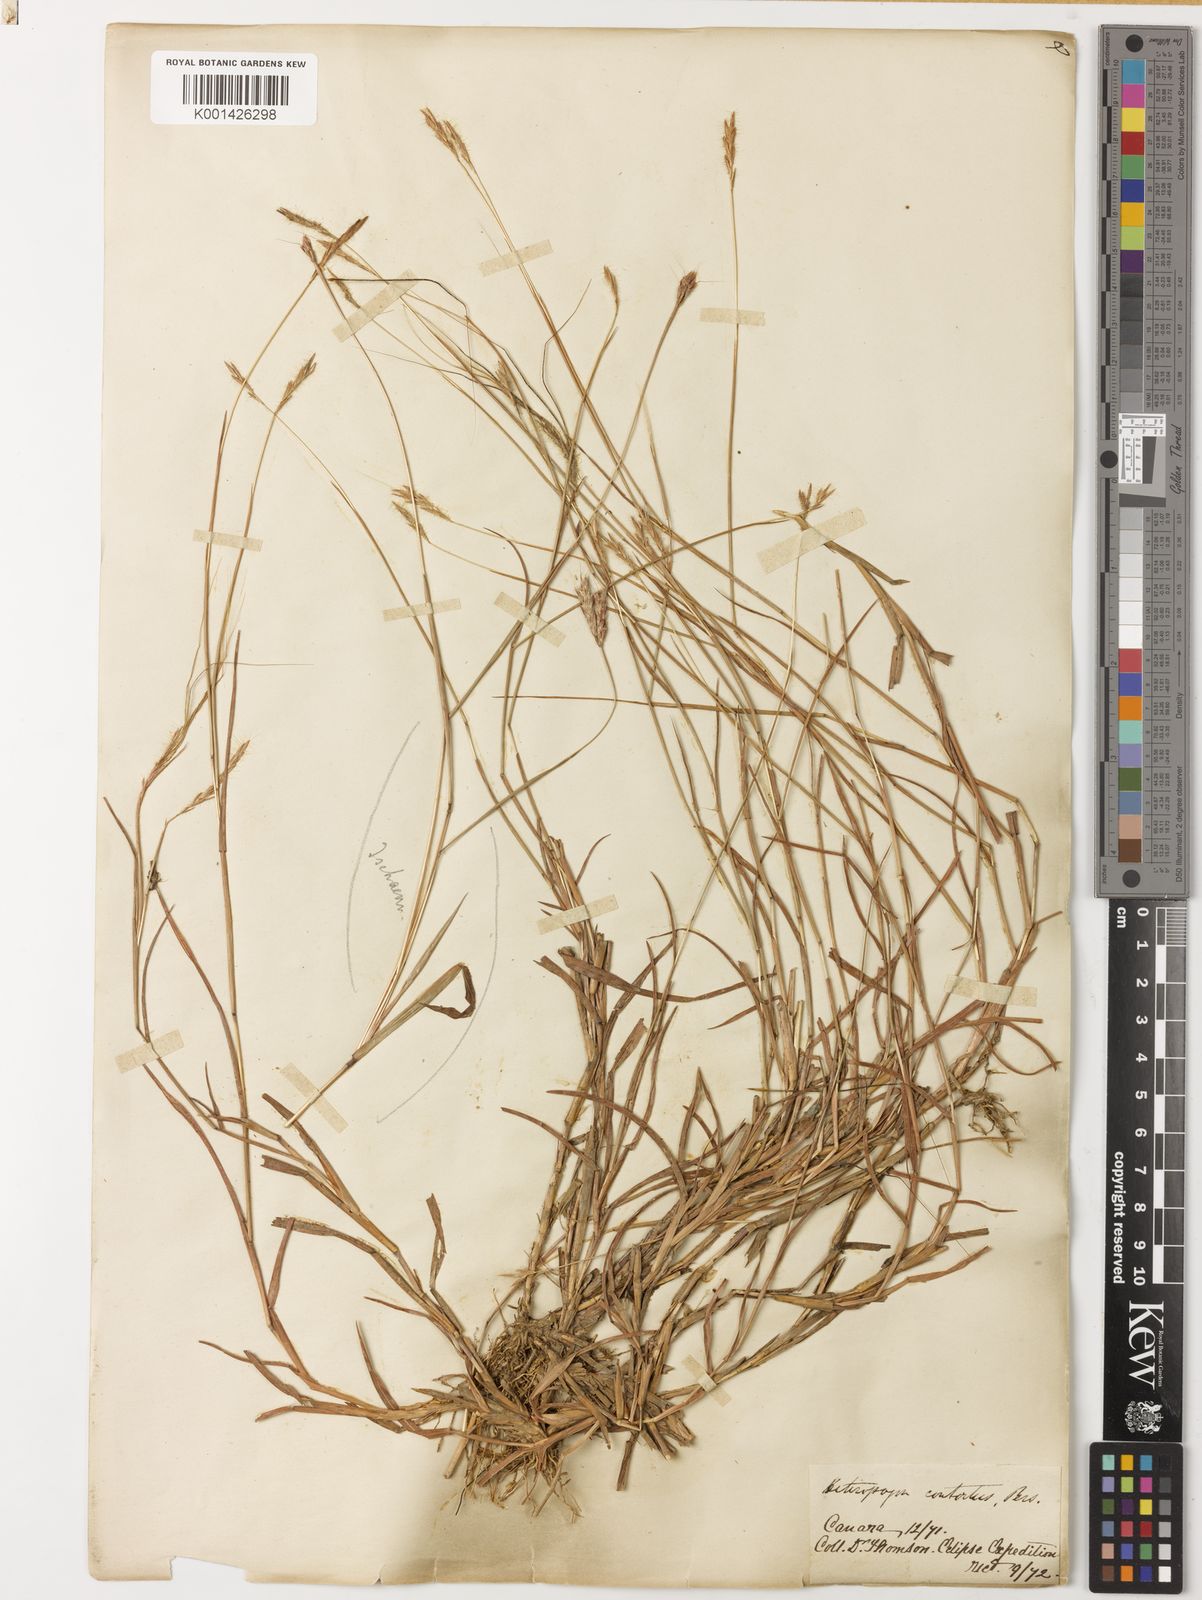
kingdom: Plantae
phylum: Tracheophyta
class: Liliopsida
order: Poales
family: Poaceae
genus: Ischaemum
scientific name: Ischaemum
